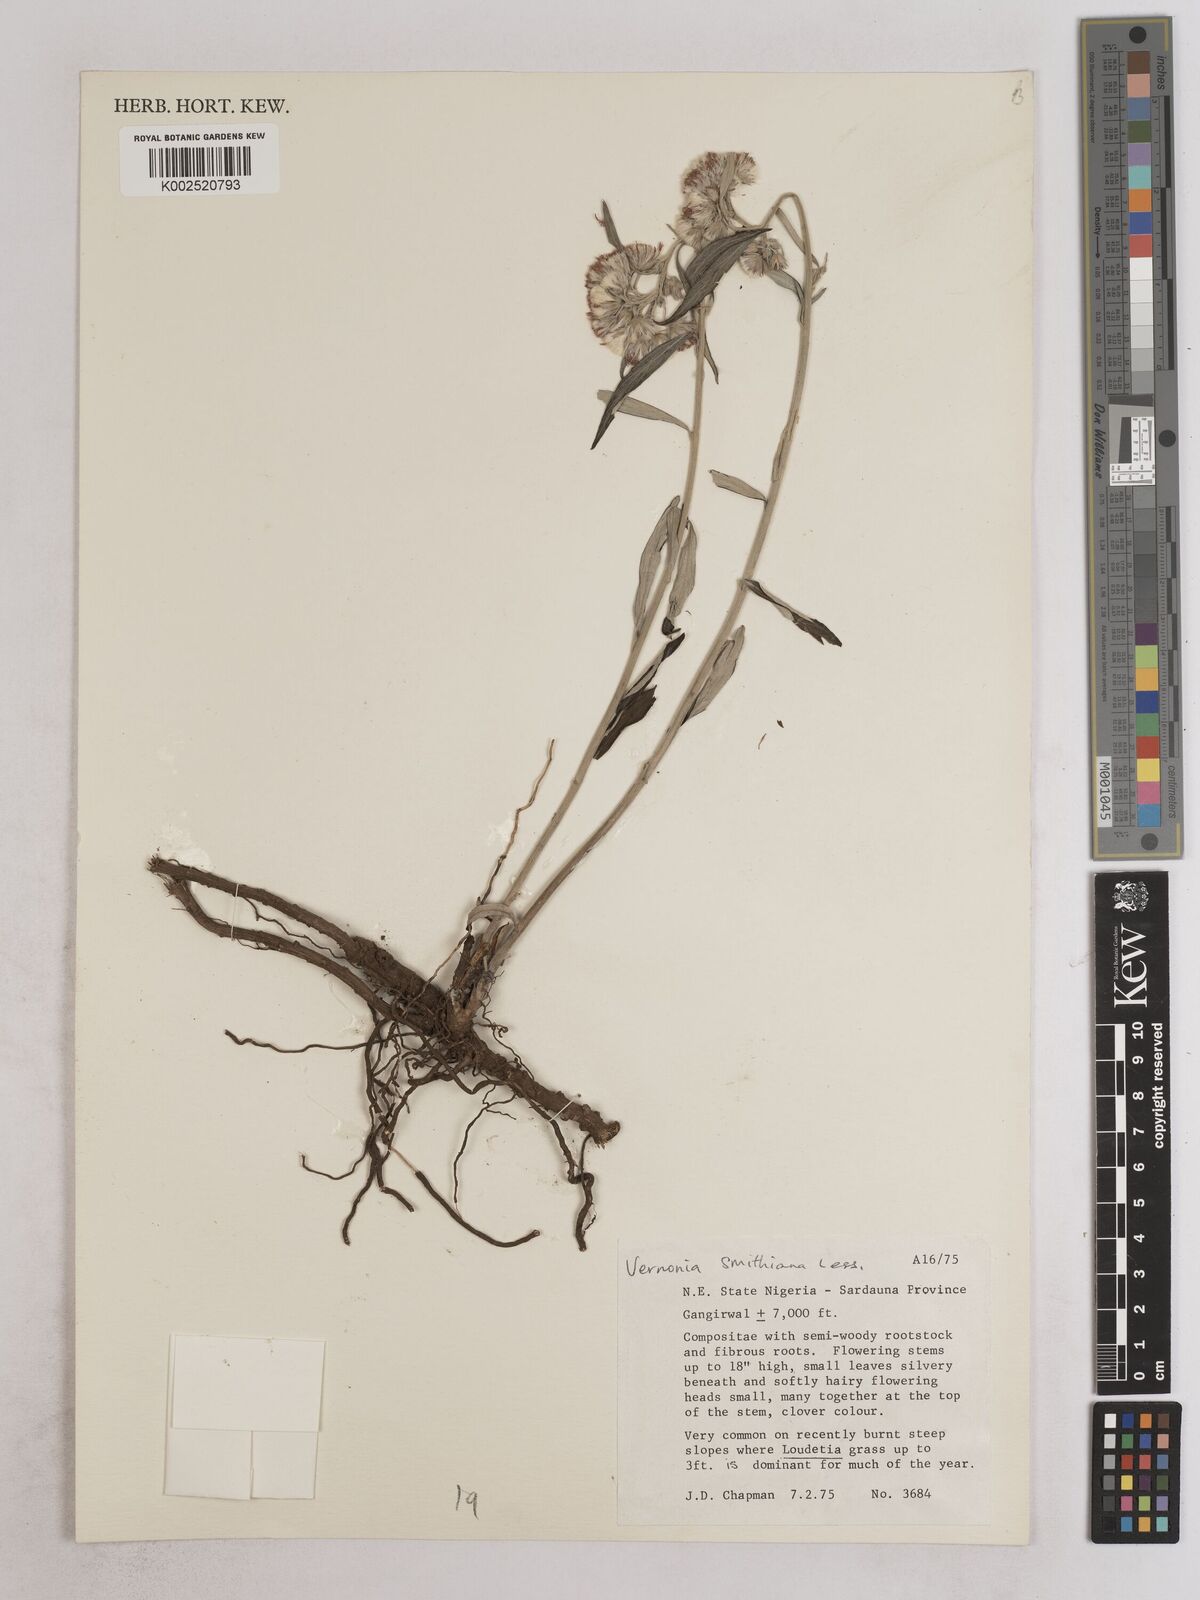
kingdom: Plantae
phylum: Tracheophyta
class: Magnoliopsida
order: Asterales
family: Asteraceae
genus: Hilliardiella
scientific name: Hilliardiella smithiana
